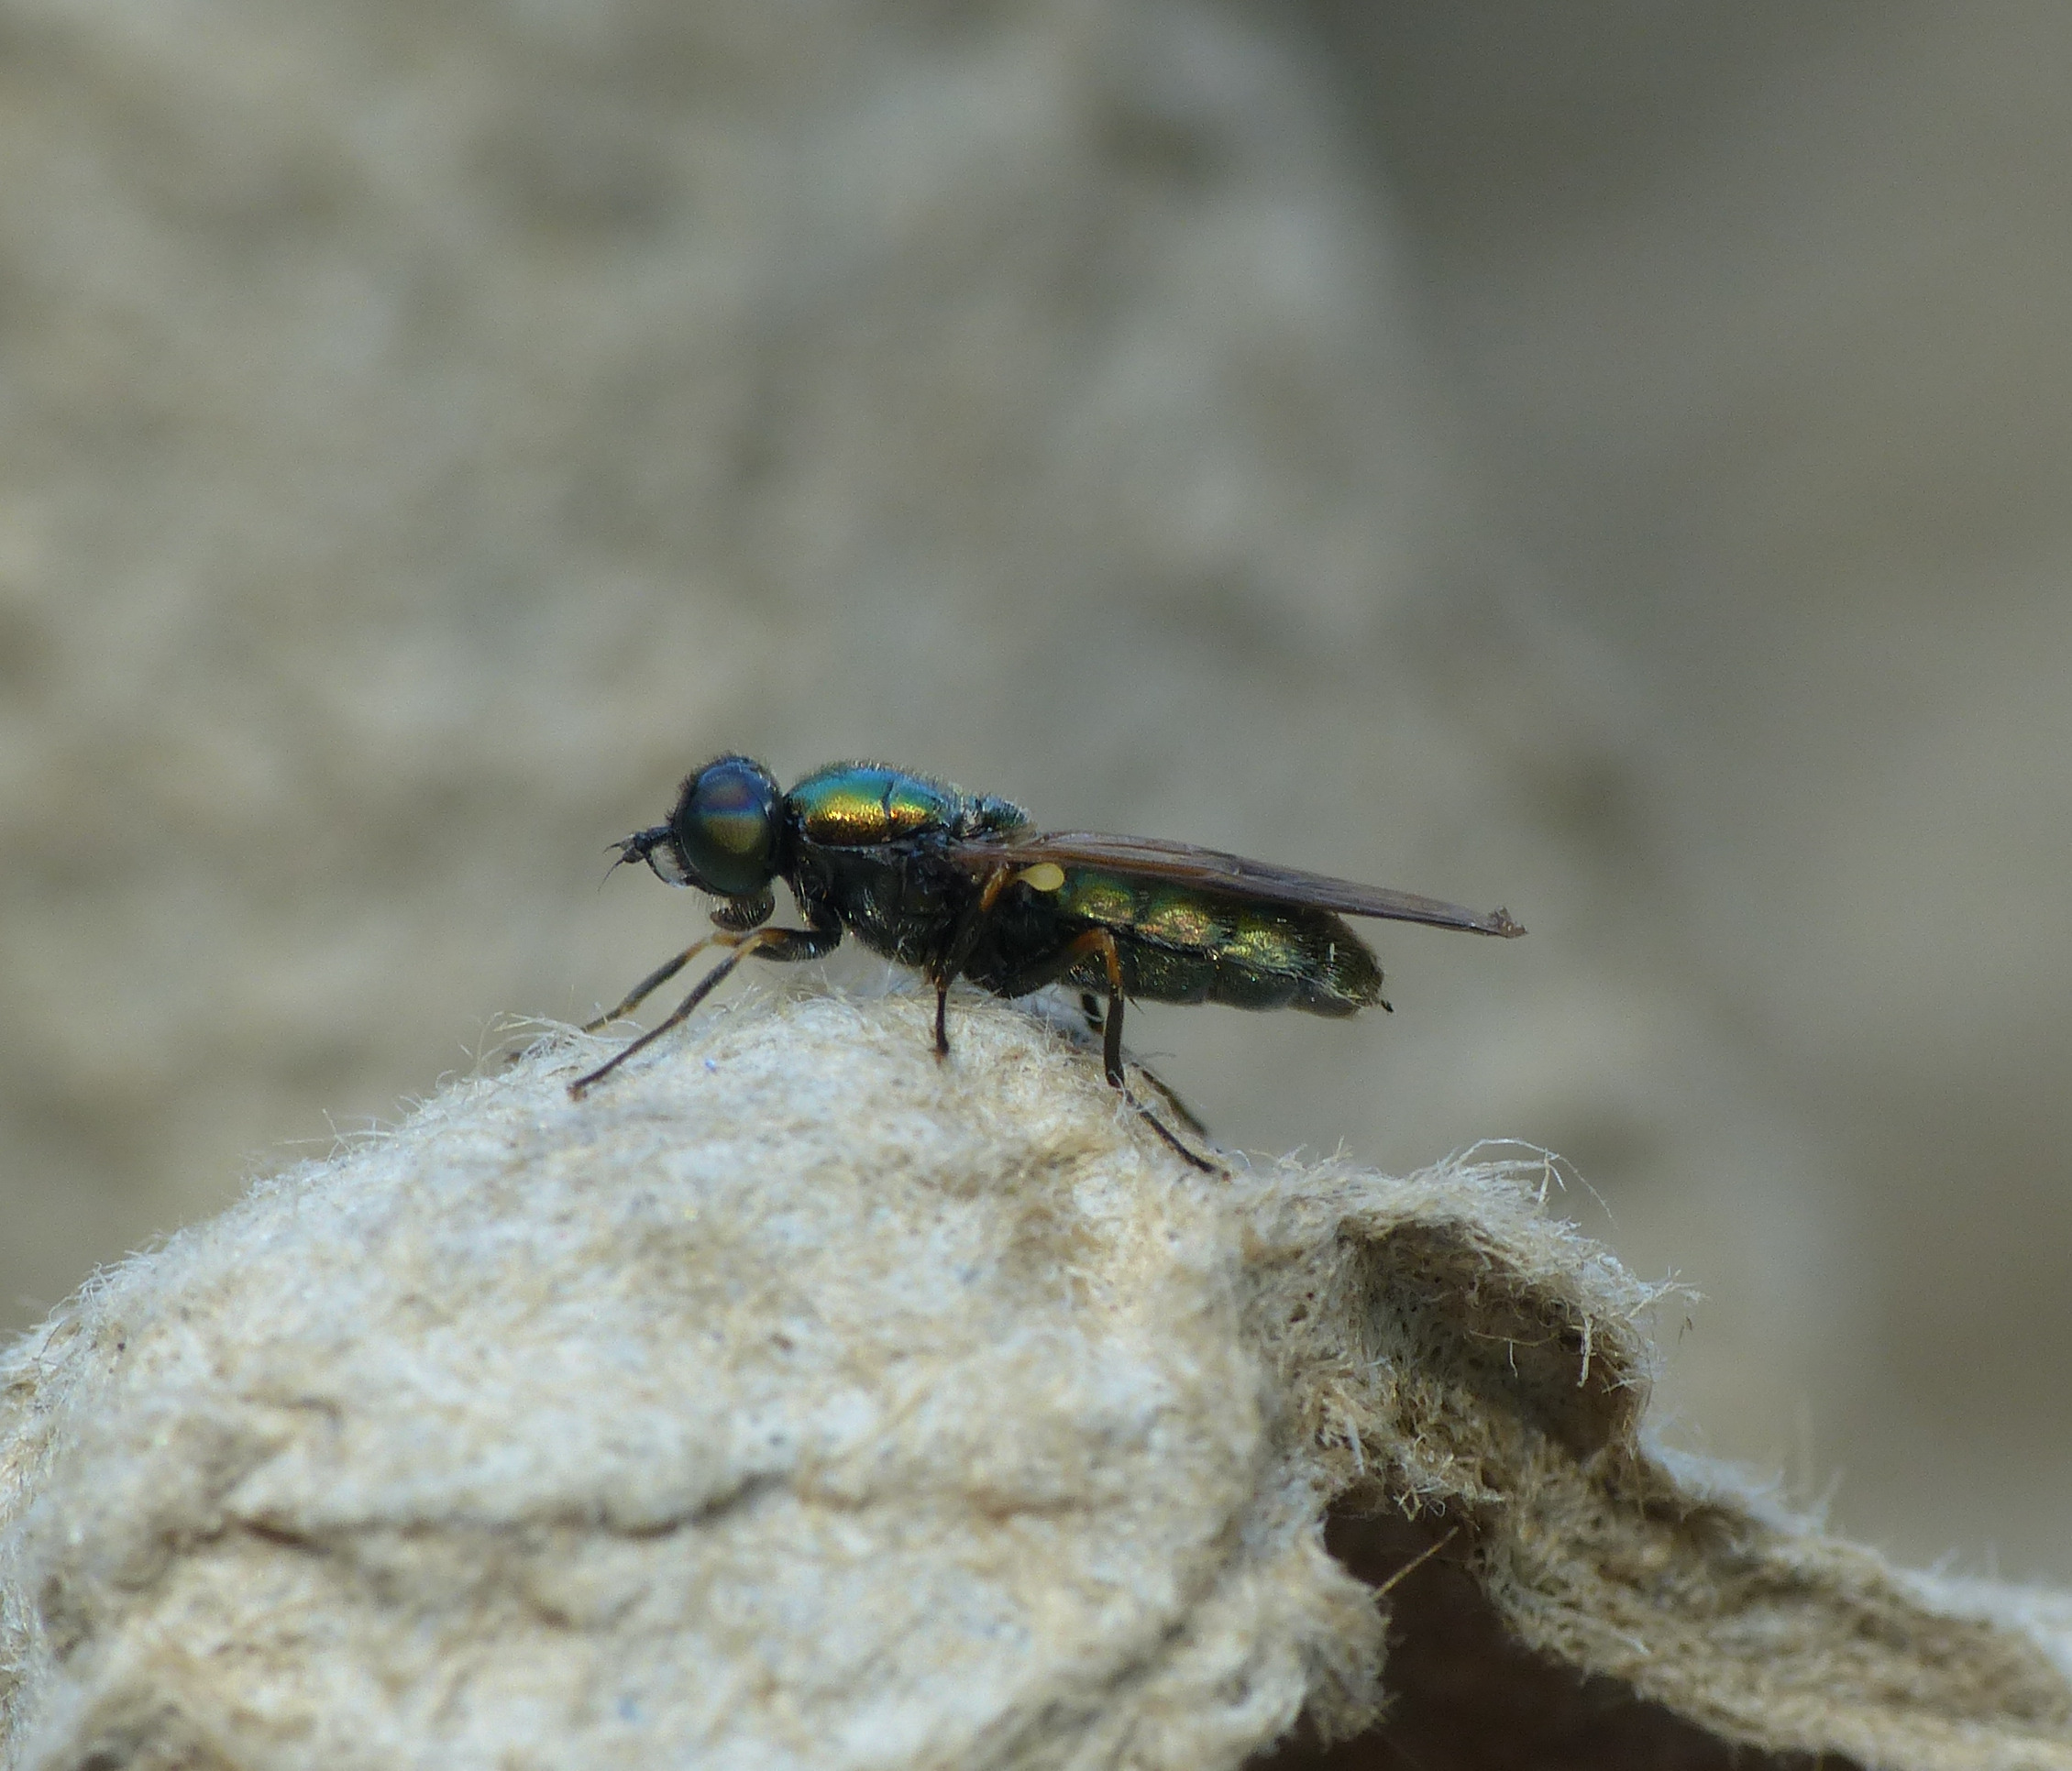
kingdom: Animalia
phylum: Arthropoda
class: Insecta
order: Diptera
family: Stratiomyidae
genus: Chloromyia
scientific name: Chloromyia formosa
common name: Grøn våbenflue
